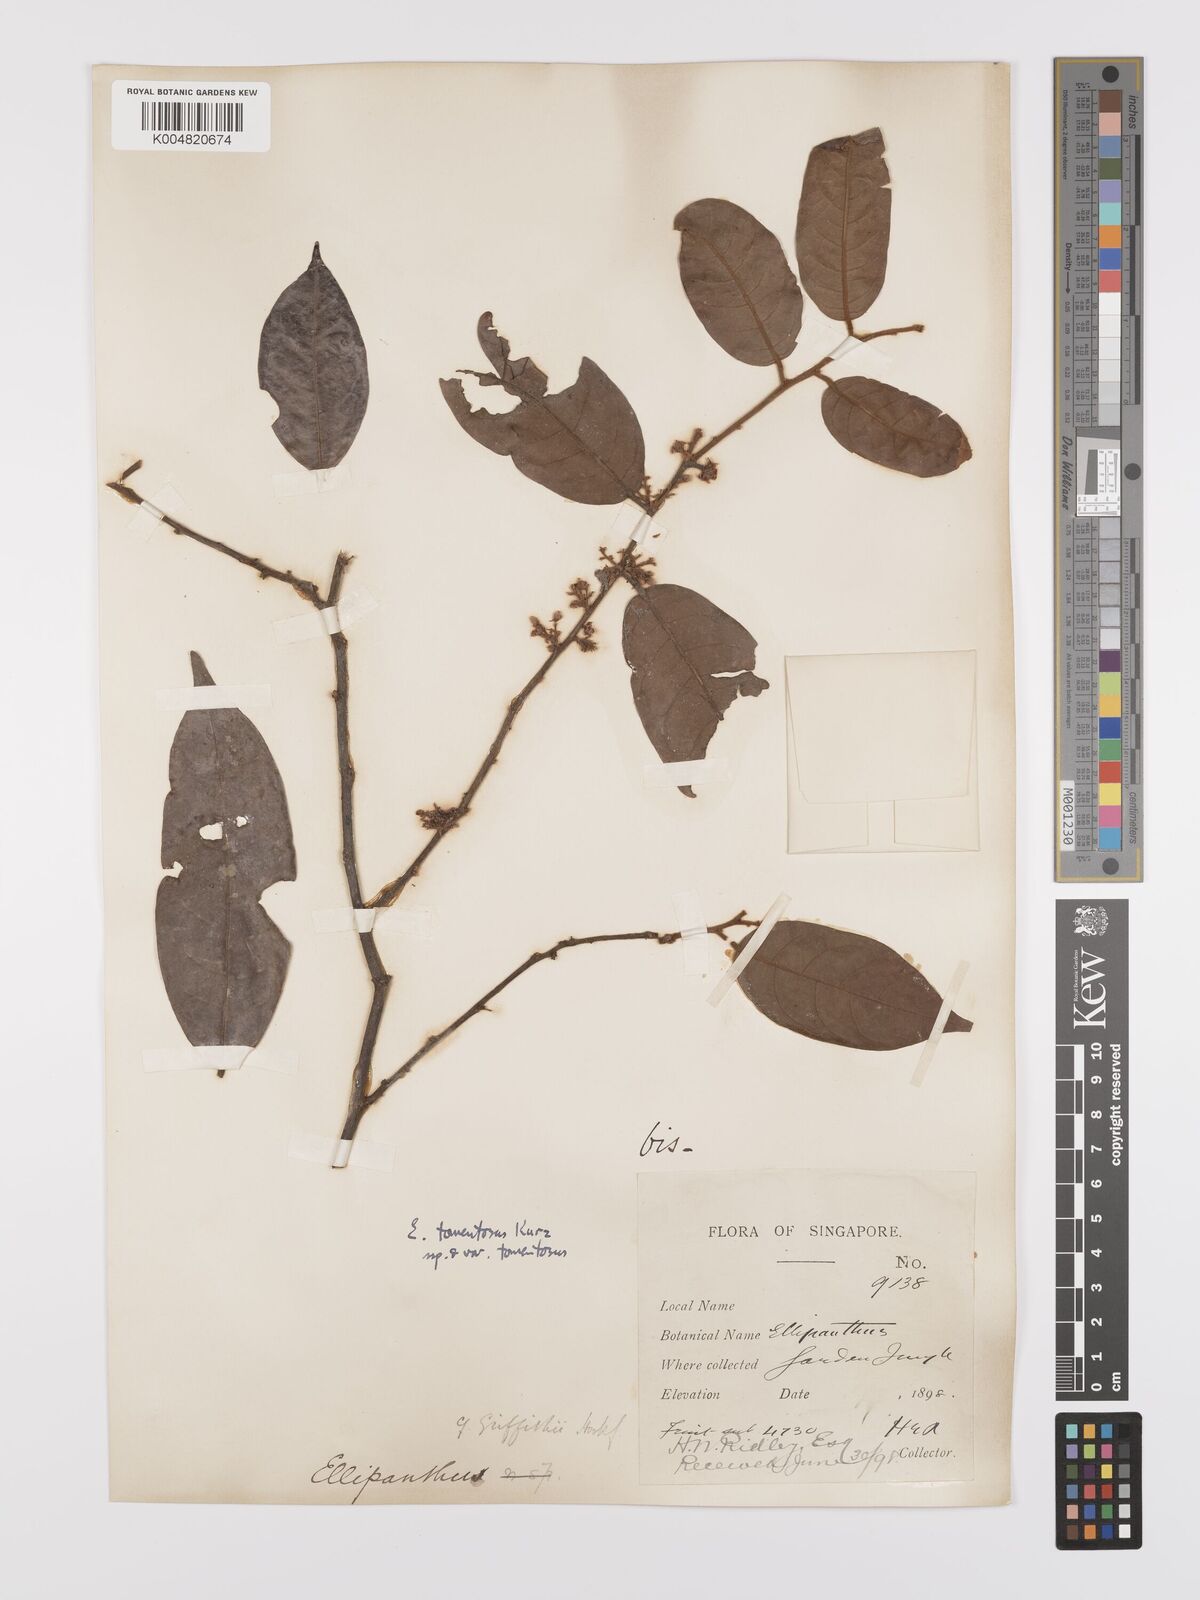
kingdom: Plantae
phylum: Tracheophyta
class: Magnoliopsida
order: Oxalidales
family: Connaraceae
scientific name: Connaraceae
